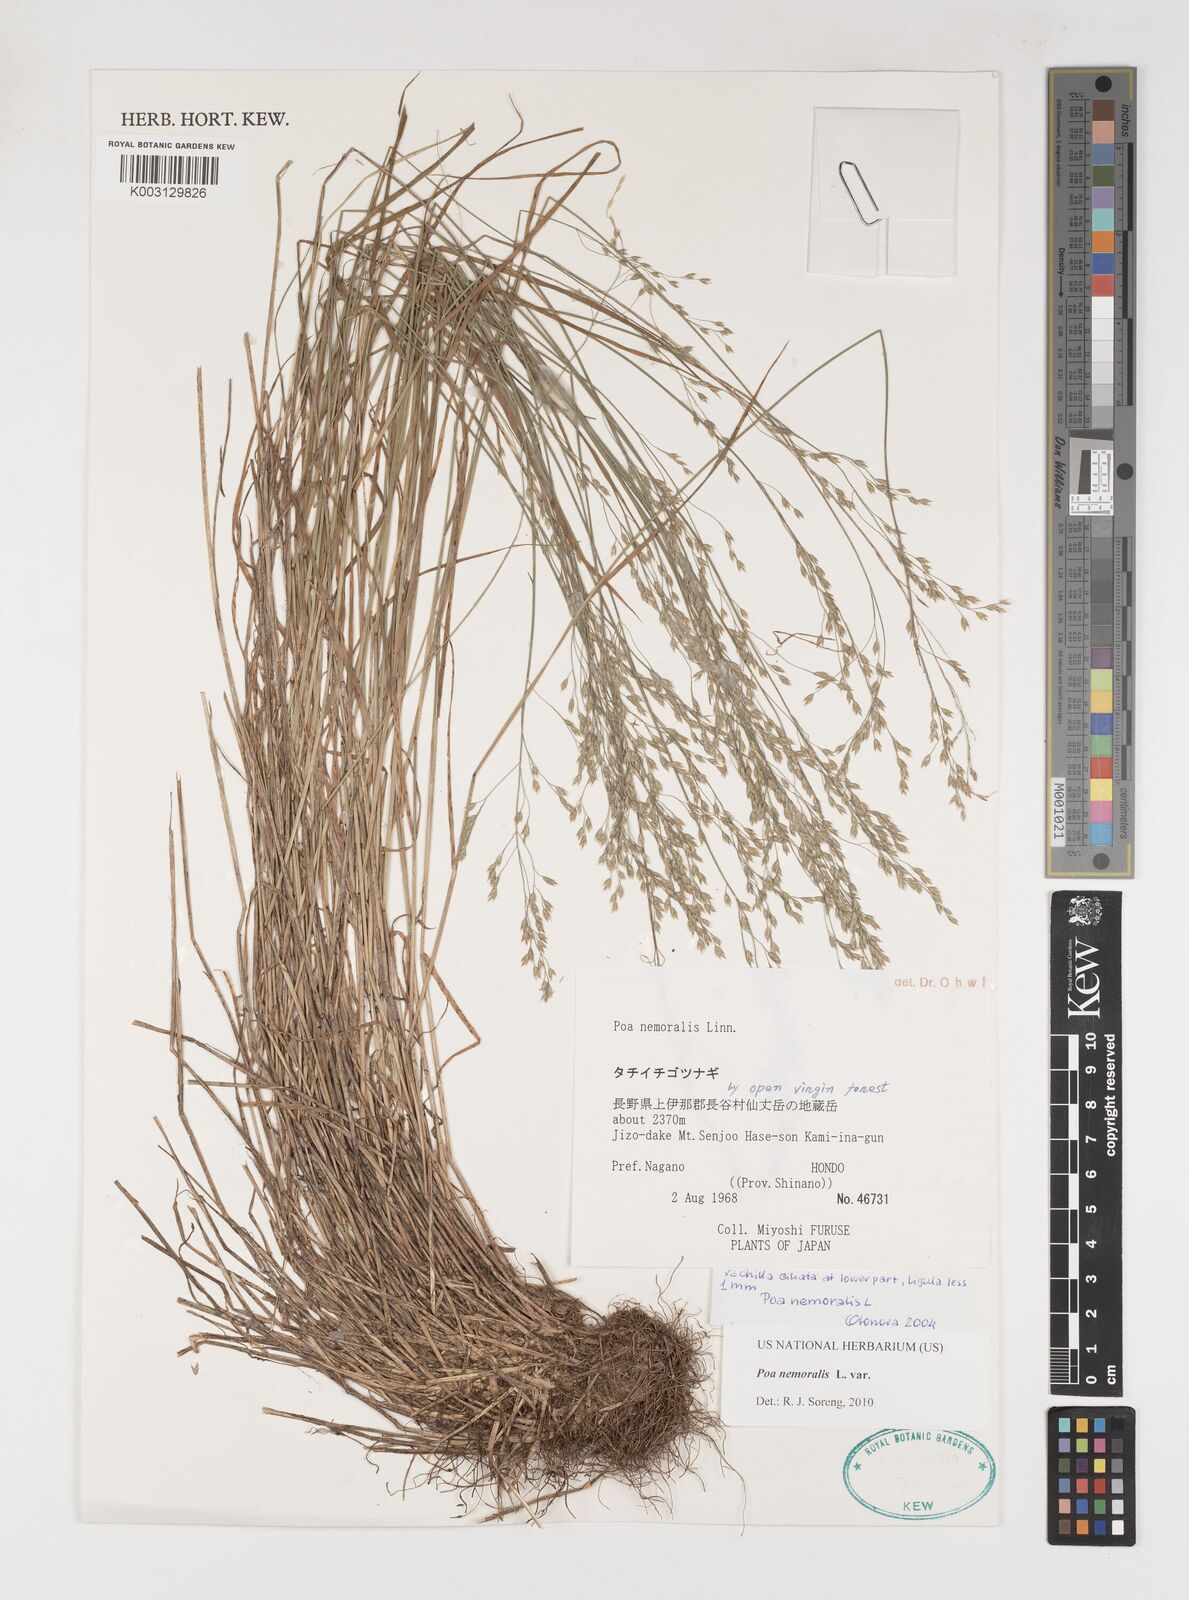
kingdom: Plantae
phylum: Tracheophyta
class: Liliopsida
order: Poales
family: Poaceae
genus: Poa
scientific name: Poa nemoralis
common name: Wood bluegrass
